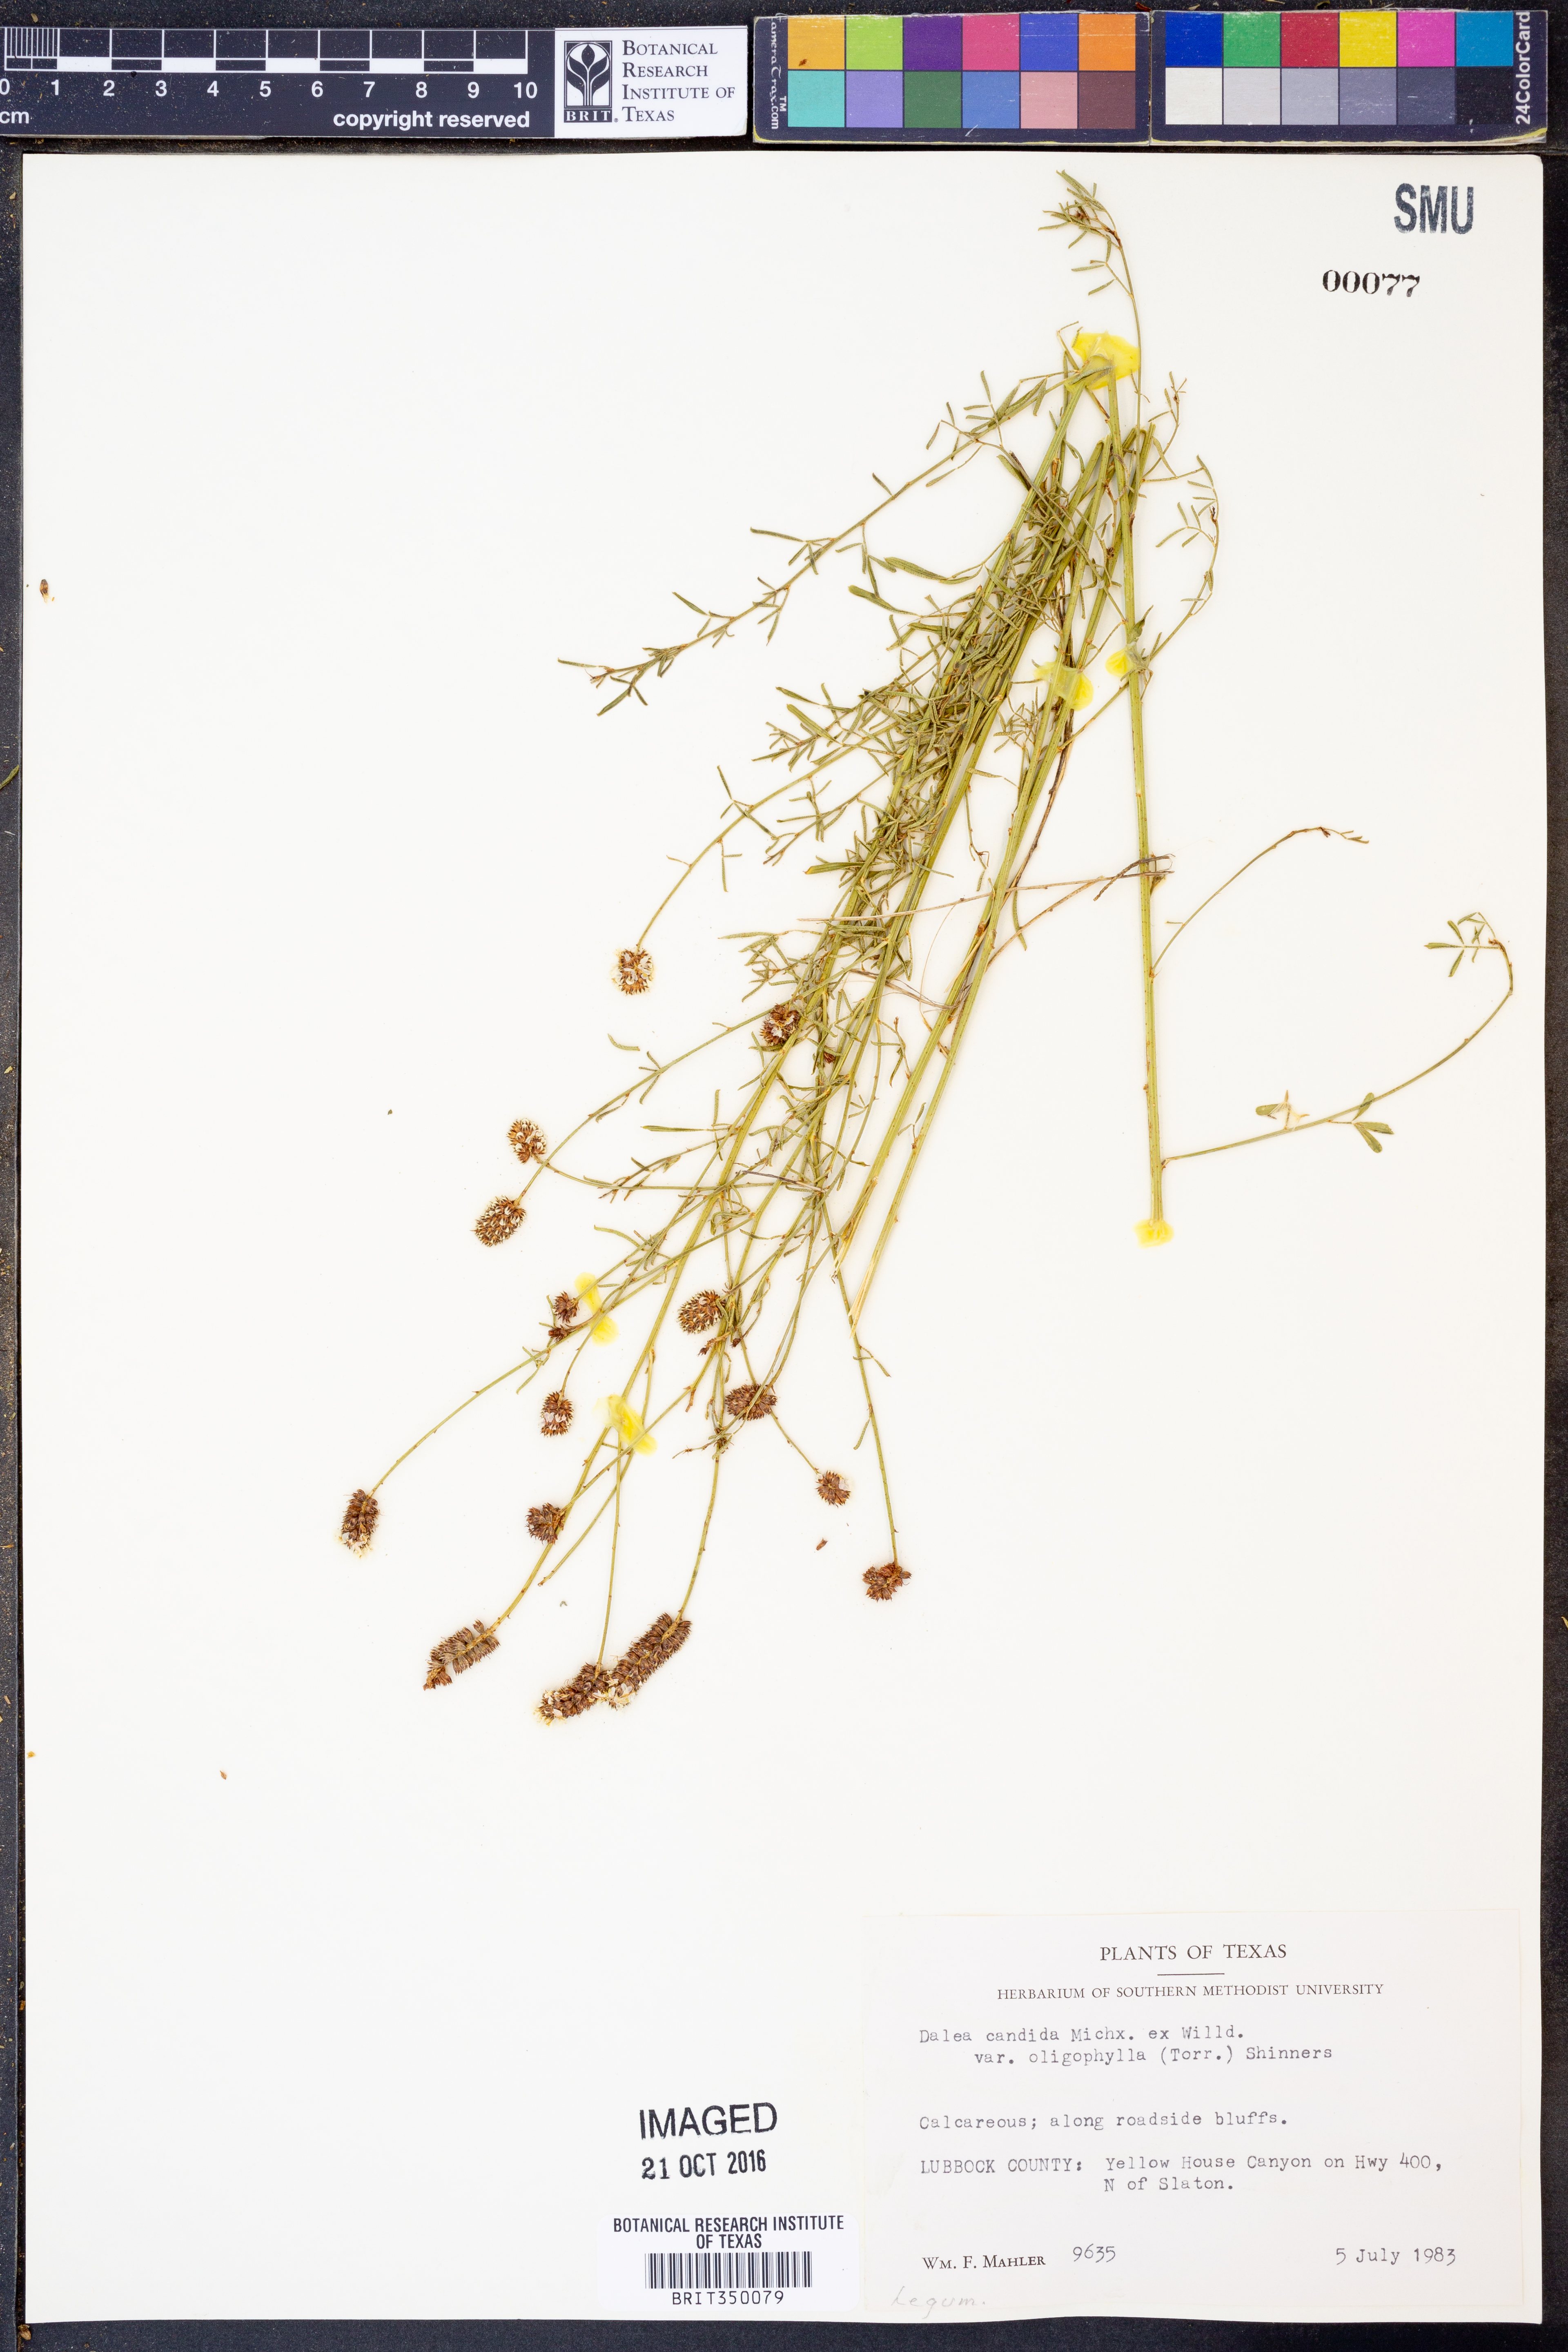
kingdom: Plantae
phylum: Tracheophyta
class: Magnoliopsida
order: Fabales
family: Fabaceae
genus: Dalea
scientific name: Dalea candida
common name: White prairie-clover
